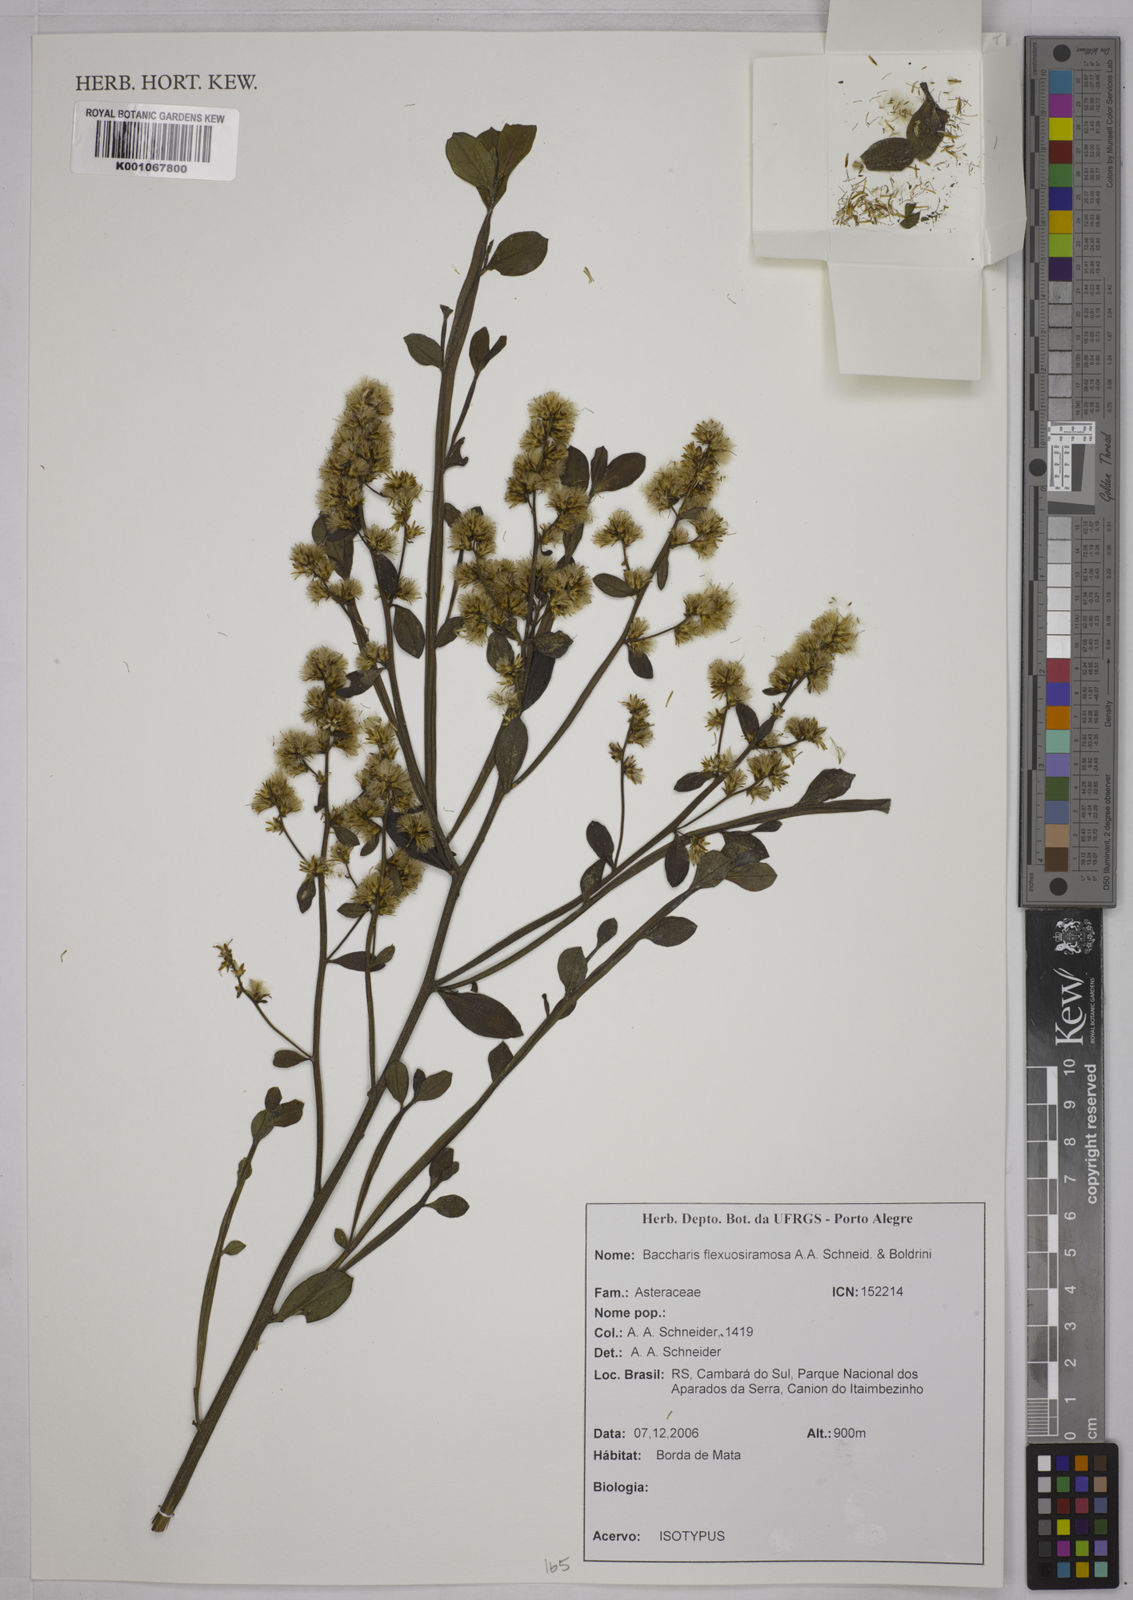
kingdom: Plantae
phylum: Tracheophyta
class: Magnoliopsida
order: Asterales
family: Asteraceae
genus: Baccharis
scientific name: Baccharis flexuosiramosa
